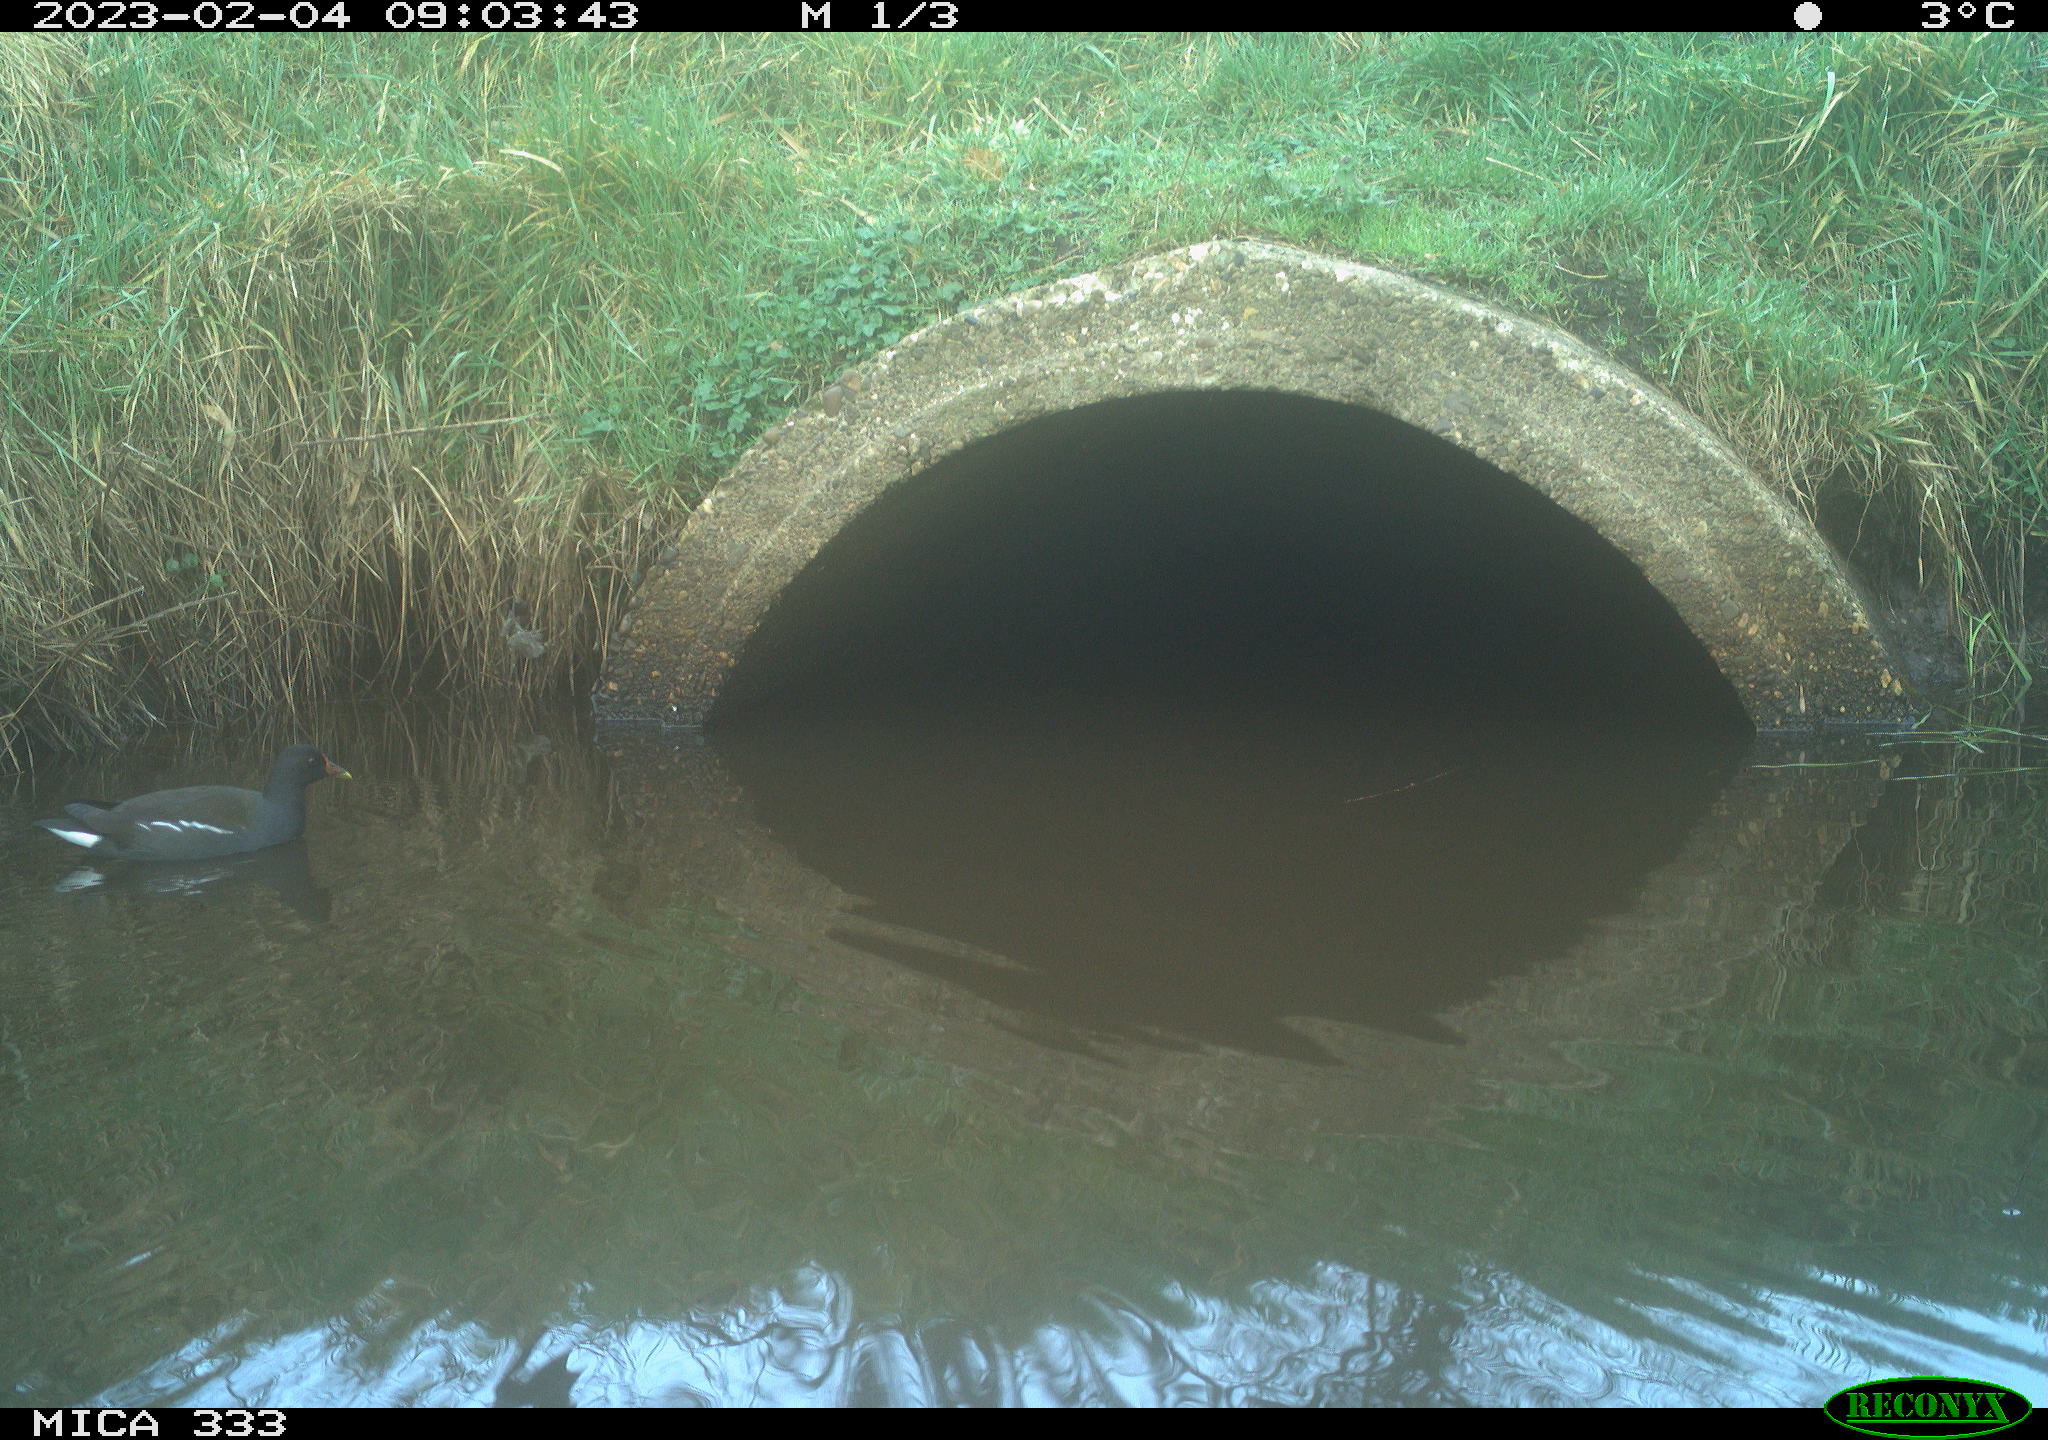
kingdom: Animalia
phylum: Chordata
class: Aves
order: Gruiformes
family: Rallidae
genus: Gallinula
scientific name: Gallinula chloropus
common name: Common moorhen
